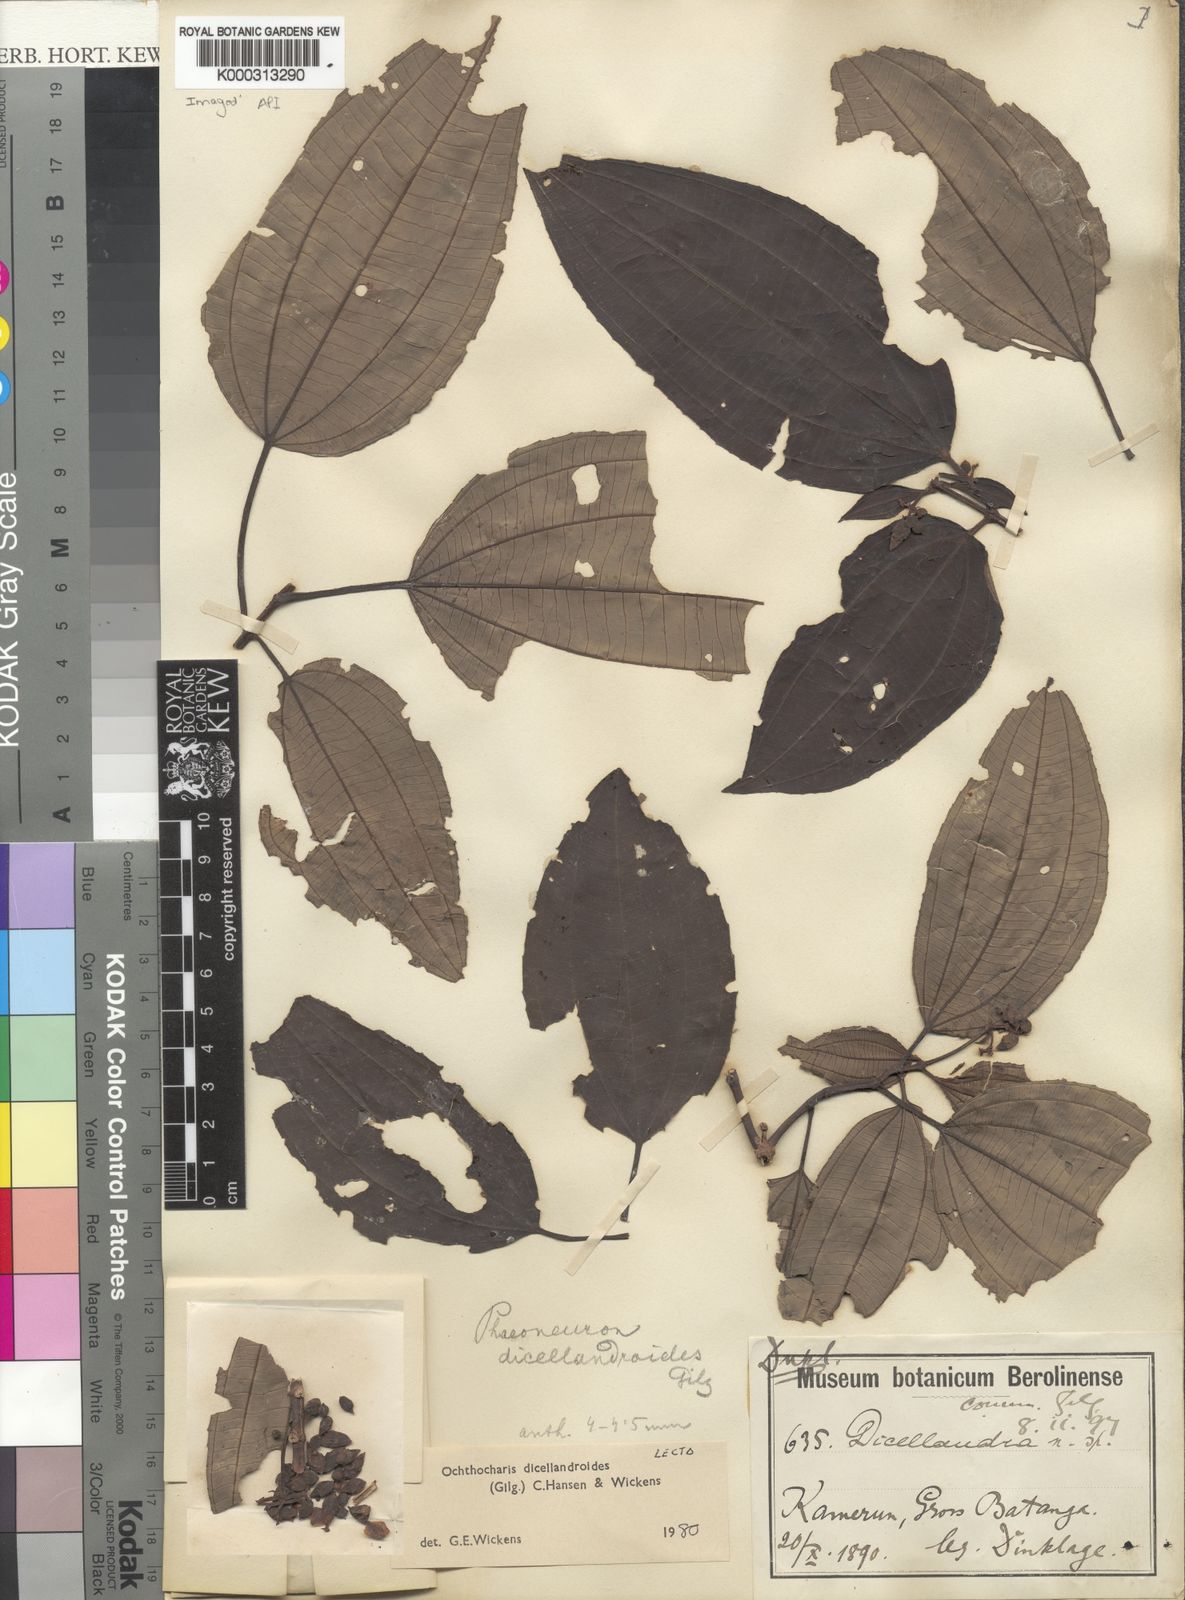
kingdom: Plantae
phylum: Tracheophyta
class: Magnoliopsida
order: Myrtales
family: Melastomataceae
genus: Ochthocharis
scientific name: Ochthocharis dicellandroides
